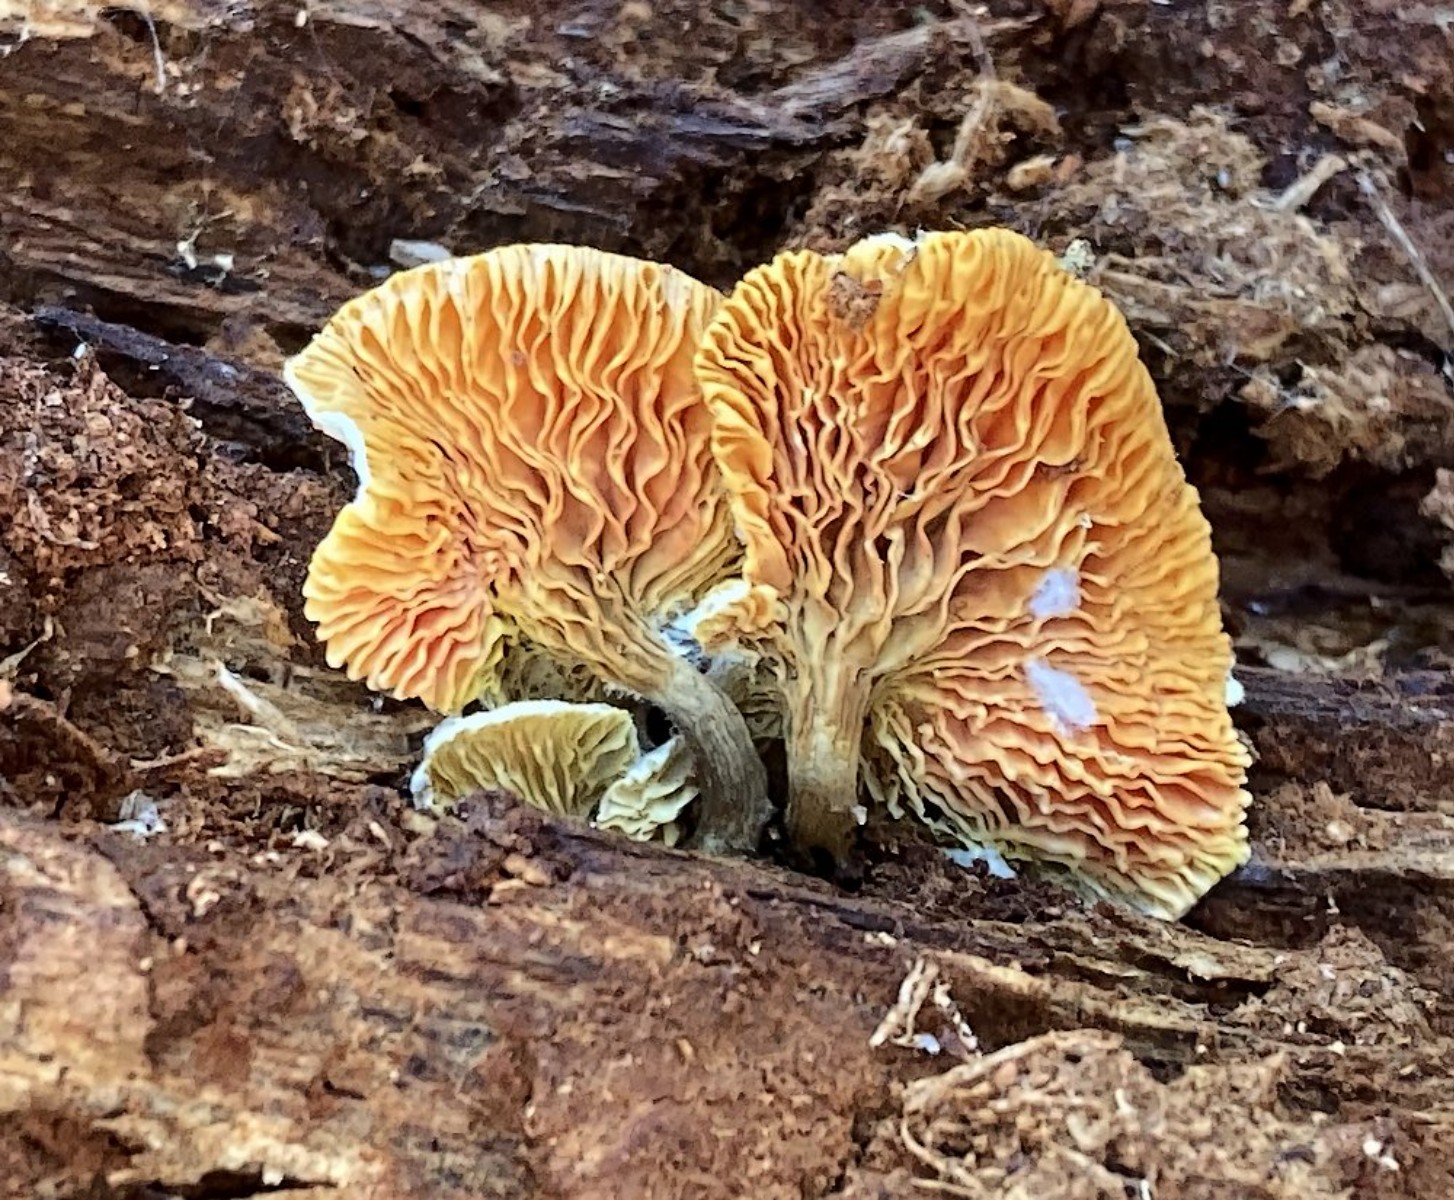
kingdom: Fungi
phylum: Basidiomycota
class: Agaricomycetes
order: Boletales
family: Hygrophoropsidaceae
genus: Hygrophoropsis
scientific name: Hygrophoropsis
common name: orangekantarel
